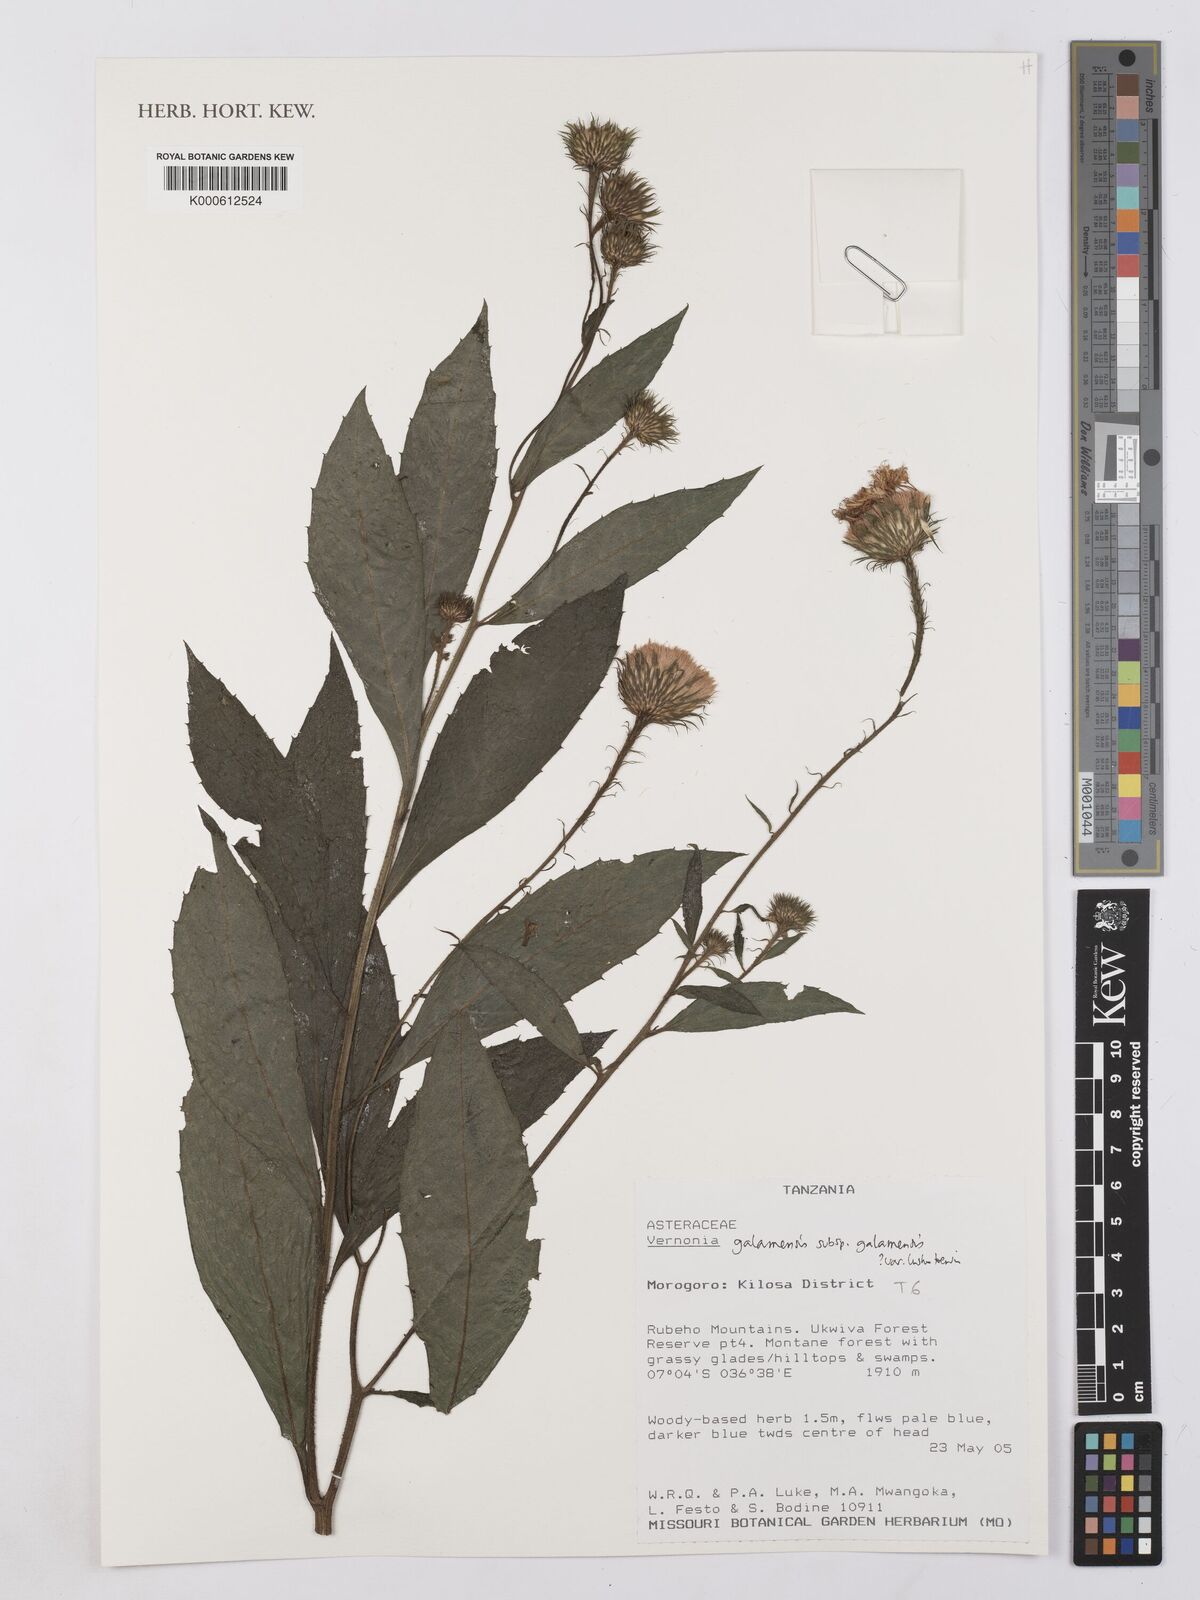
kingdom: Plantae
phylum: Tracheophyta
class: Magnoliopsida
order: Asterales
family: Asteraceae
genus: Vernonia
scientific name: Vernonia galamensis
